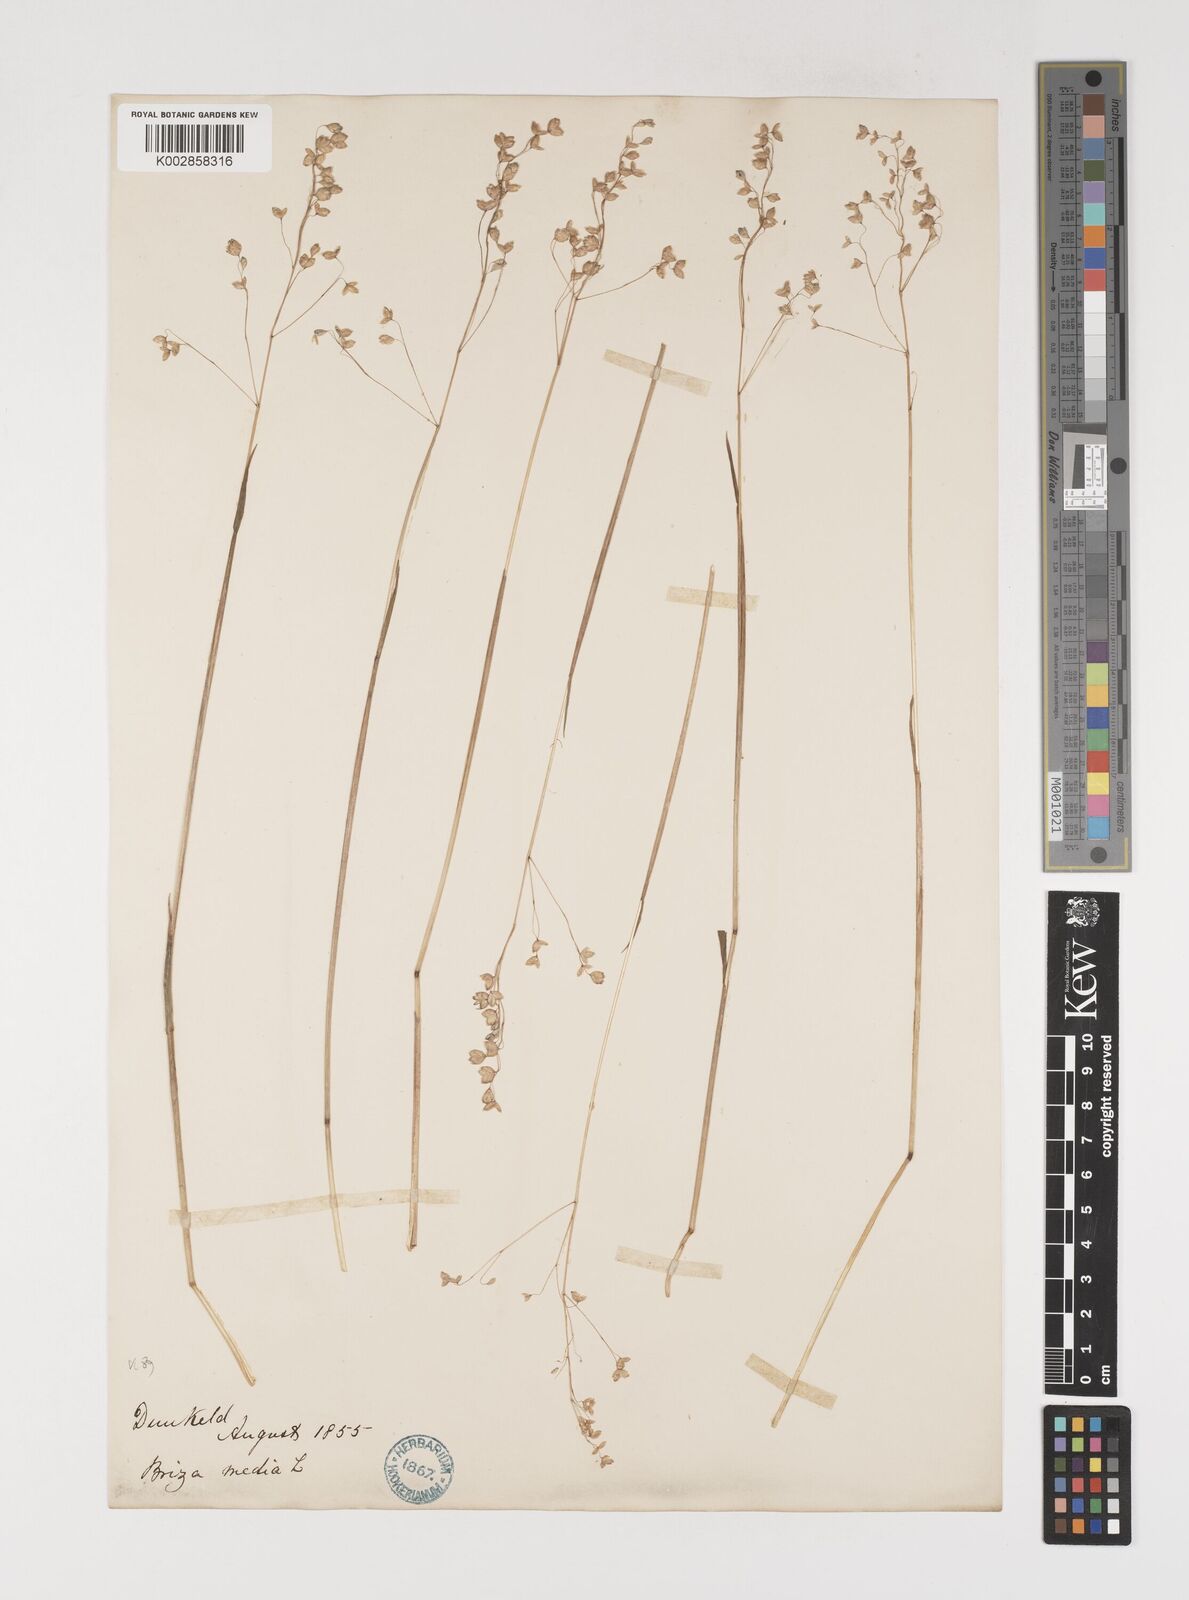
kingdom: Plantae
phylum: Tracheophyta
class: Liliopsida
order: Poales
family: Poaceae
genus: Briza
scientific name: Briza media
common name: Quaking grass
